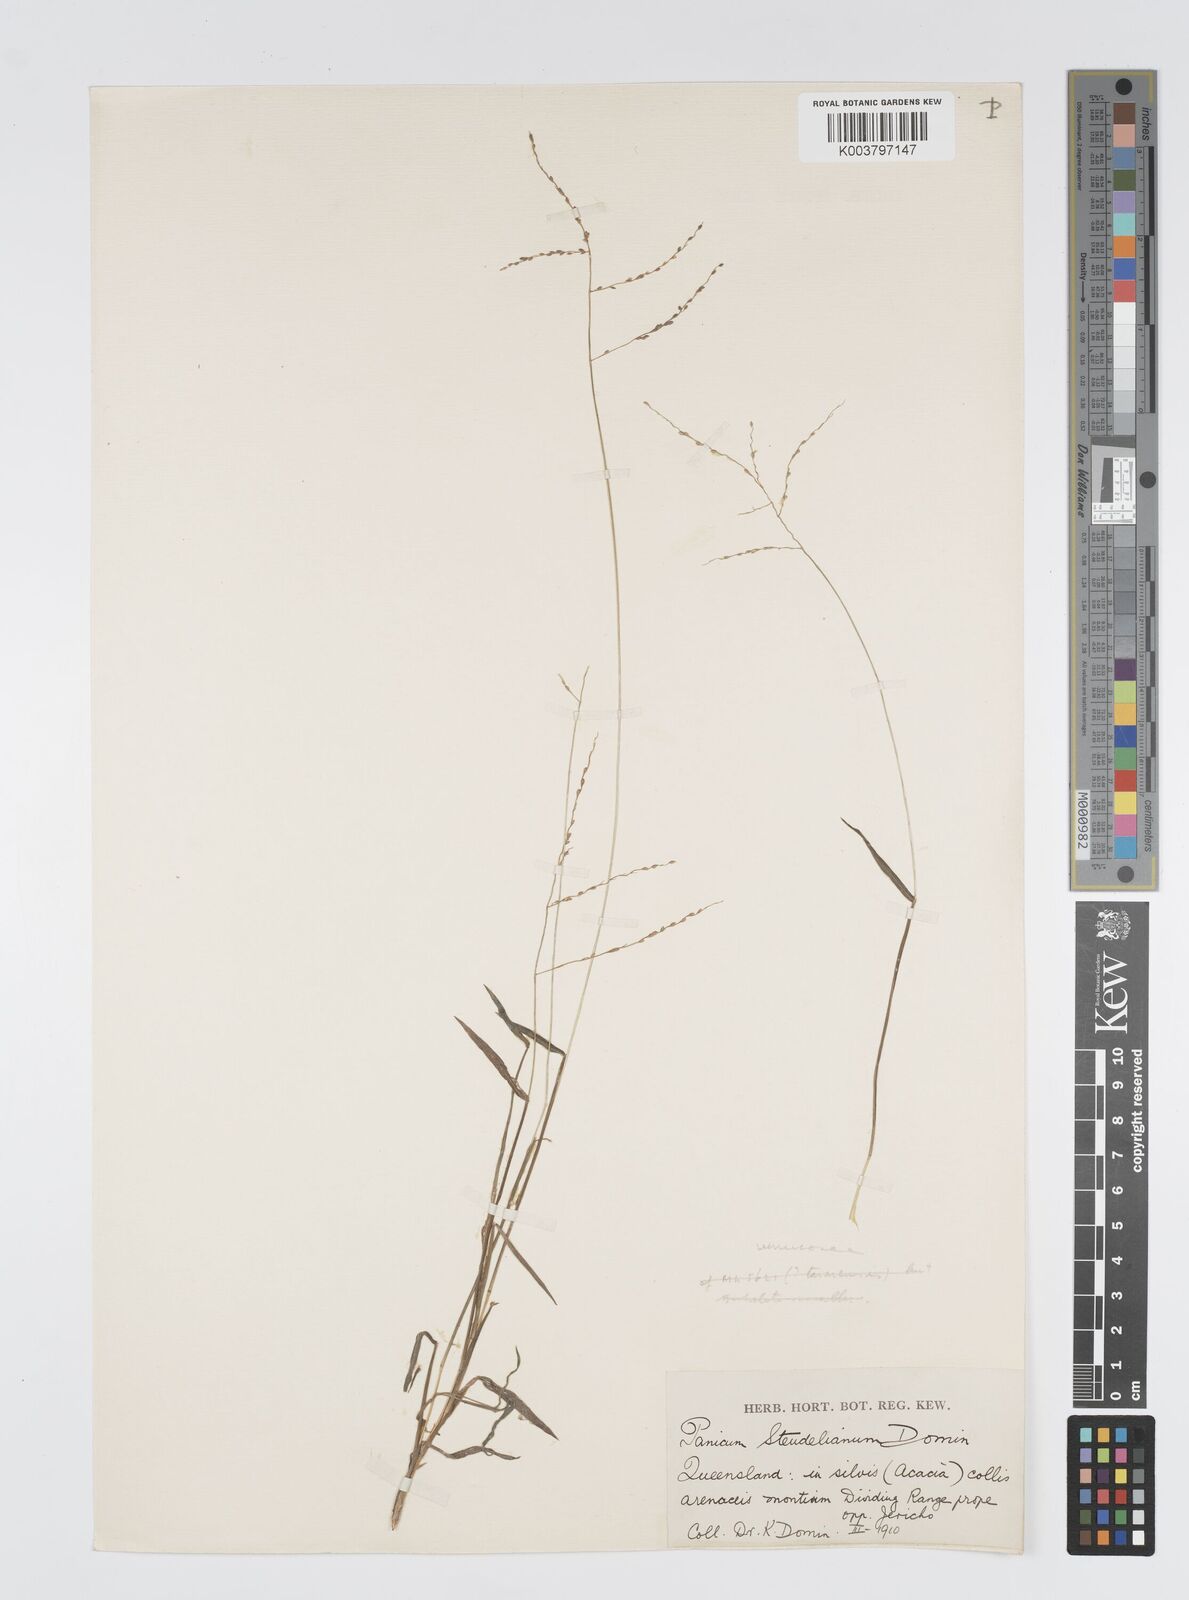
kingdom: Plantae
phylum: Tracheophyta
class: Liliopsida
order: Poales
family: Poaceae
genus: Digitaria
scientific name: Digitaria spec
